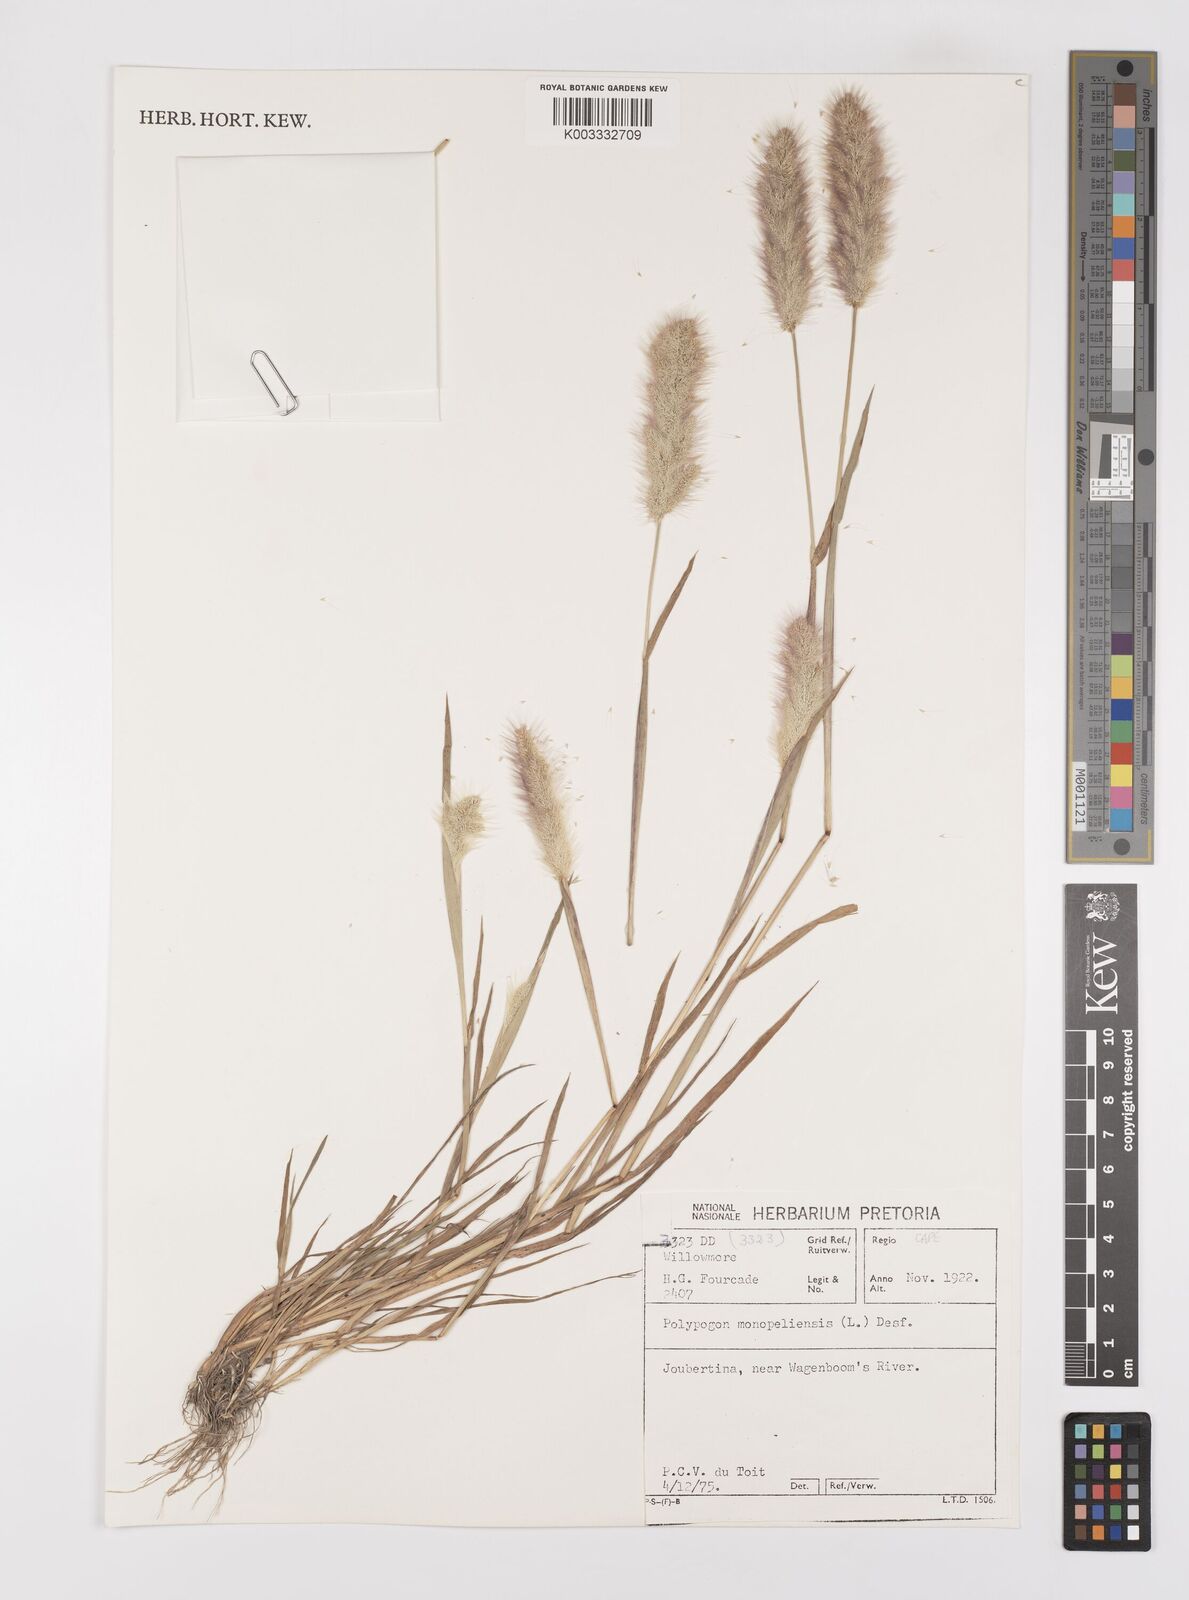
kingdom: Plantae
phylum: Tracheophyta
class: Liliopsida
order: Poales
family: Poaceae
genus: Polypogon
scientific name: Polypogon monspeliensis
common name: Annual rabbitsfoot grass
